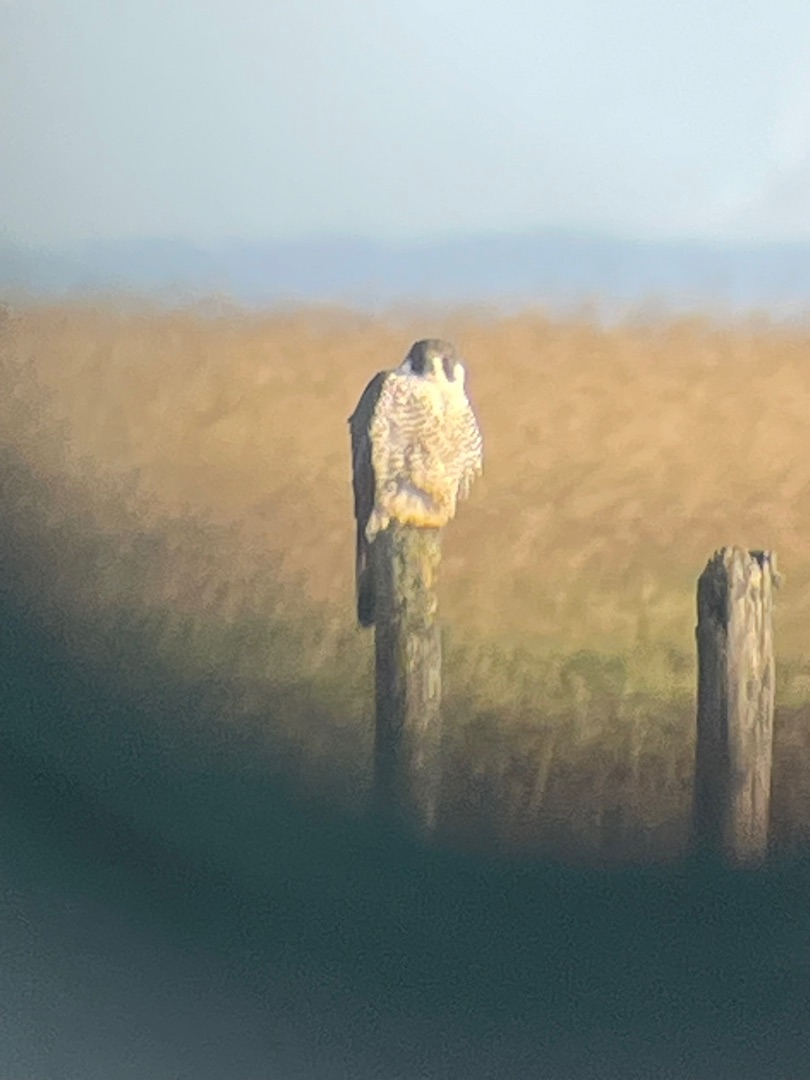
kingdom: Animalia
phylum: Chordata
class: Aves
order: Falconiformes
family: Falconidae
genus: Falco
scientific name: Falco peregrinus
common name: Vandrefalk
